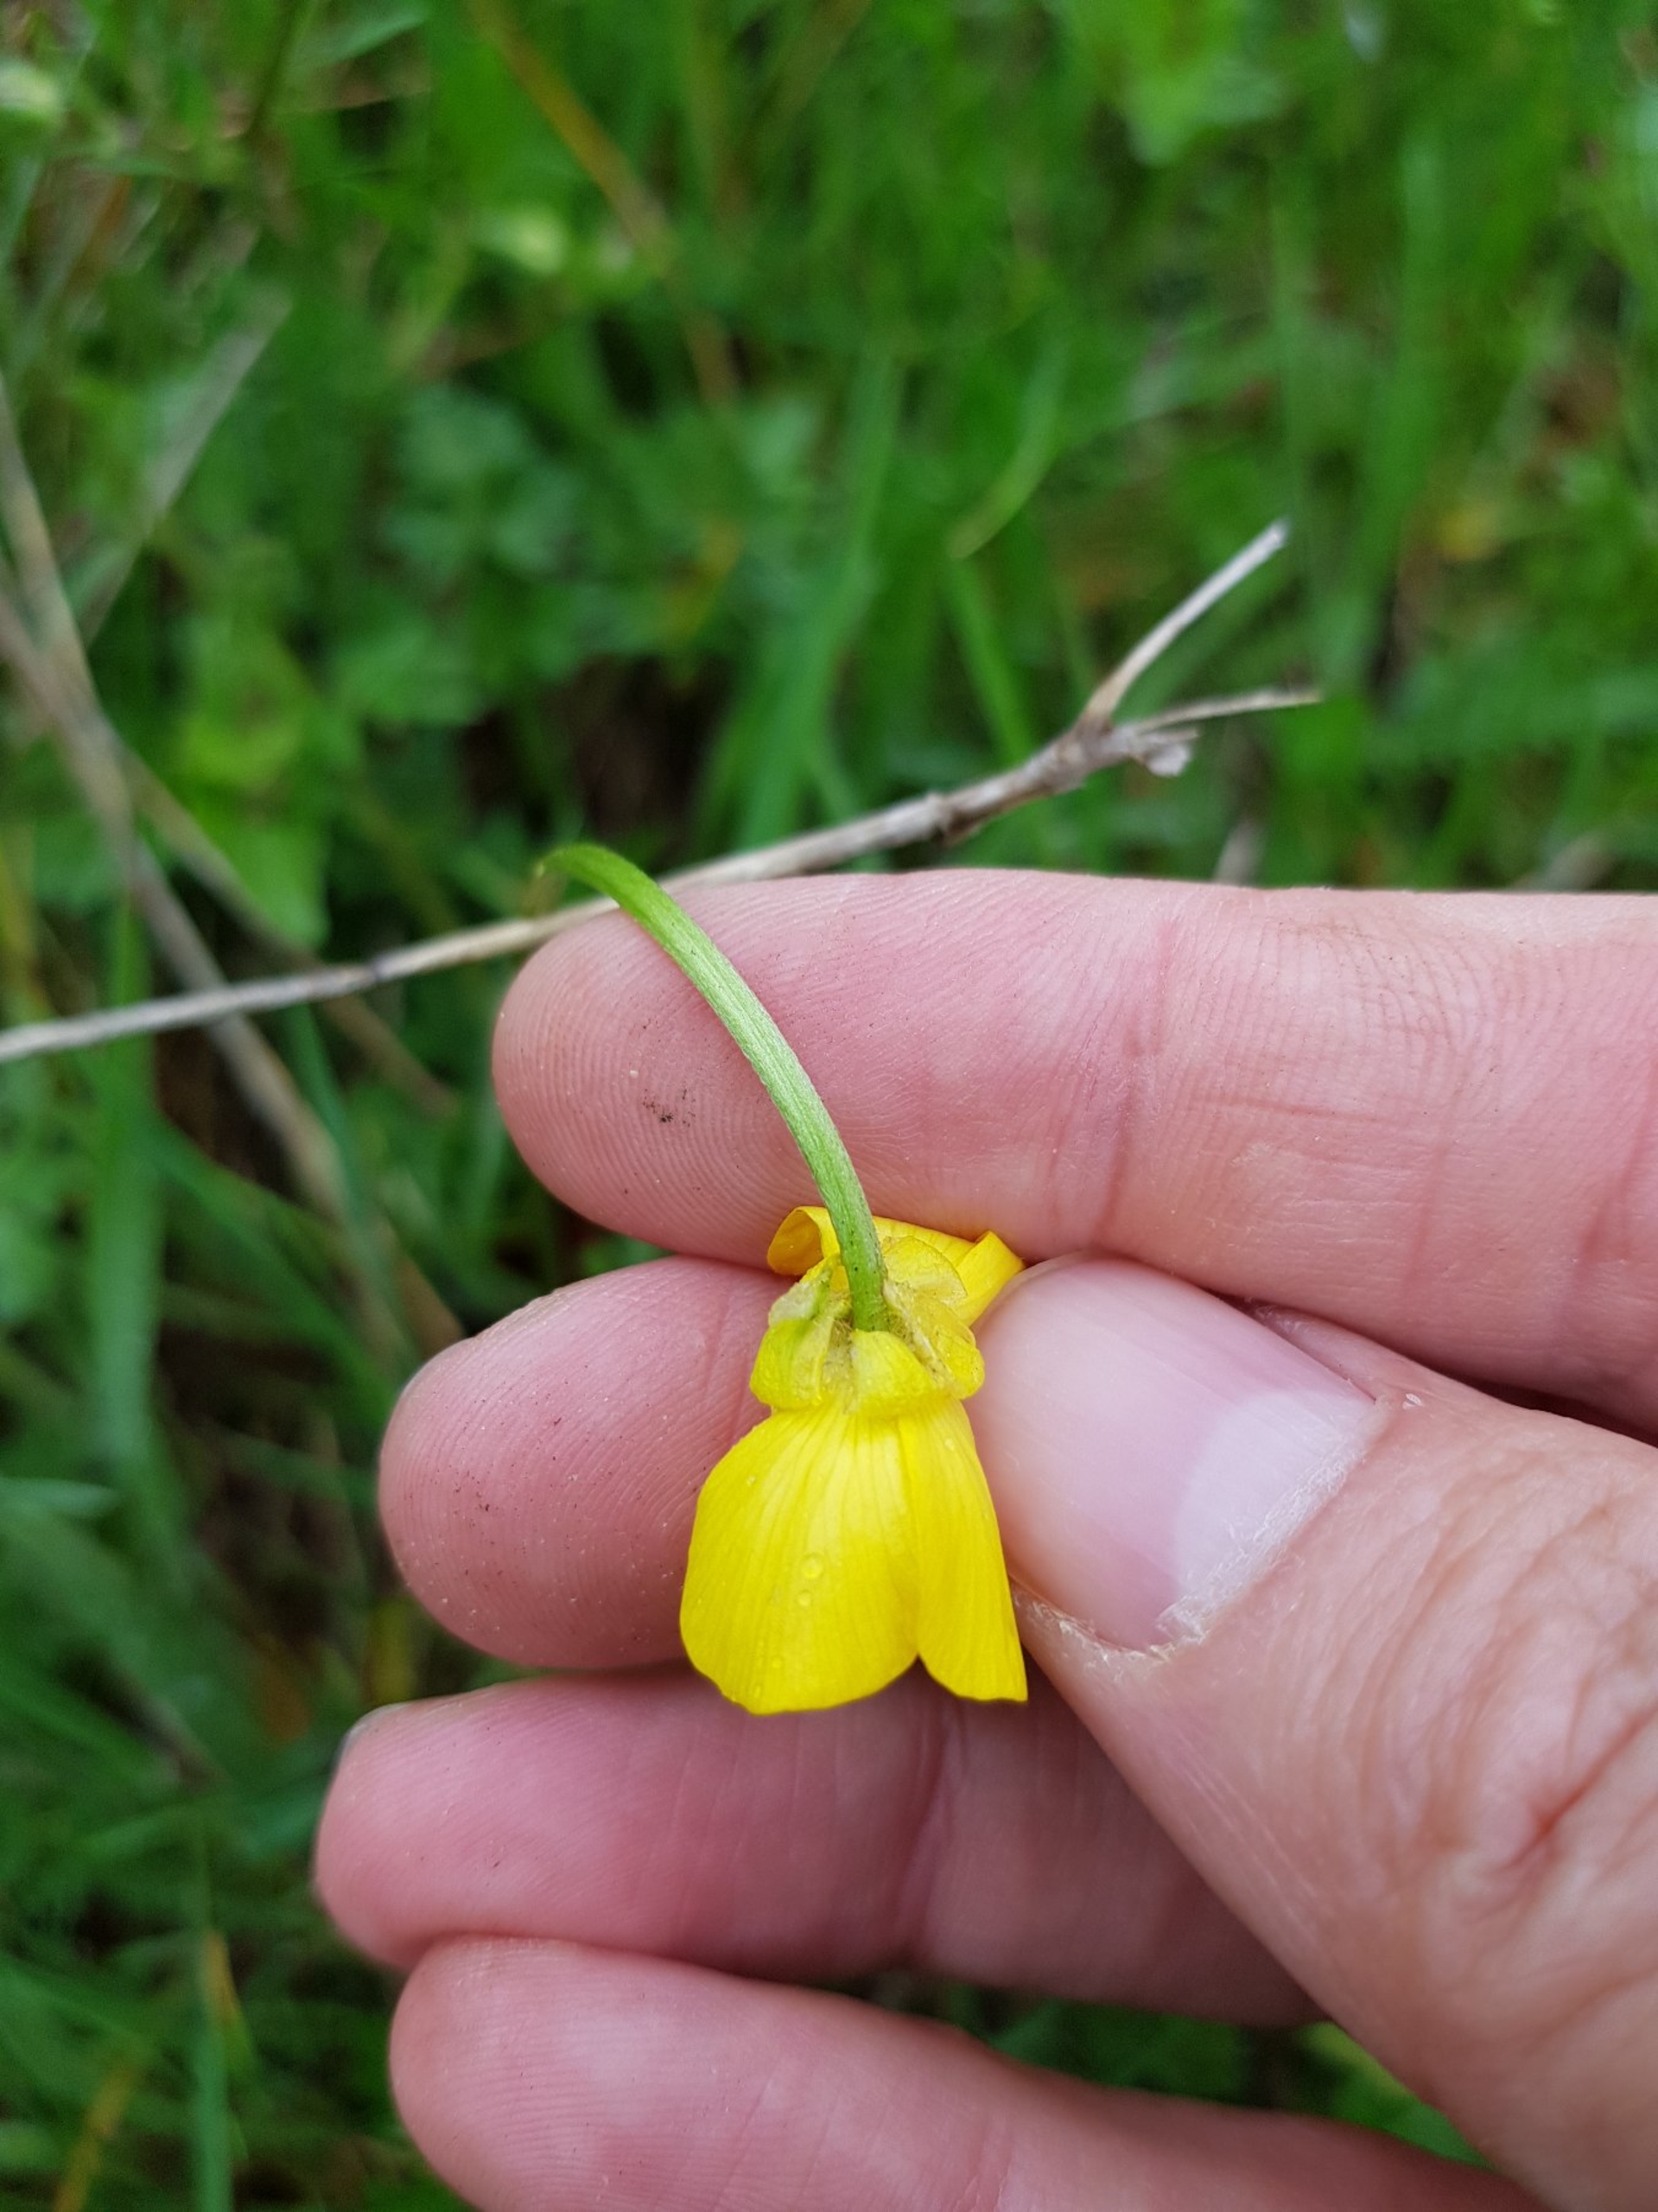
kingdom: Plantae
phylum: Tracheophyta
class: Magnoliopsida
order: Ranunculales
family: Ranunculaceae
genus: Ranunculus
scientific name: Ranunculus bulbosus
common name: Knold-ranunkel
